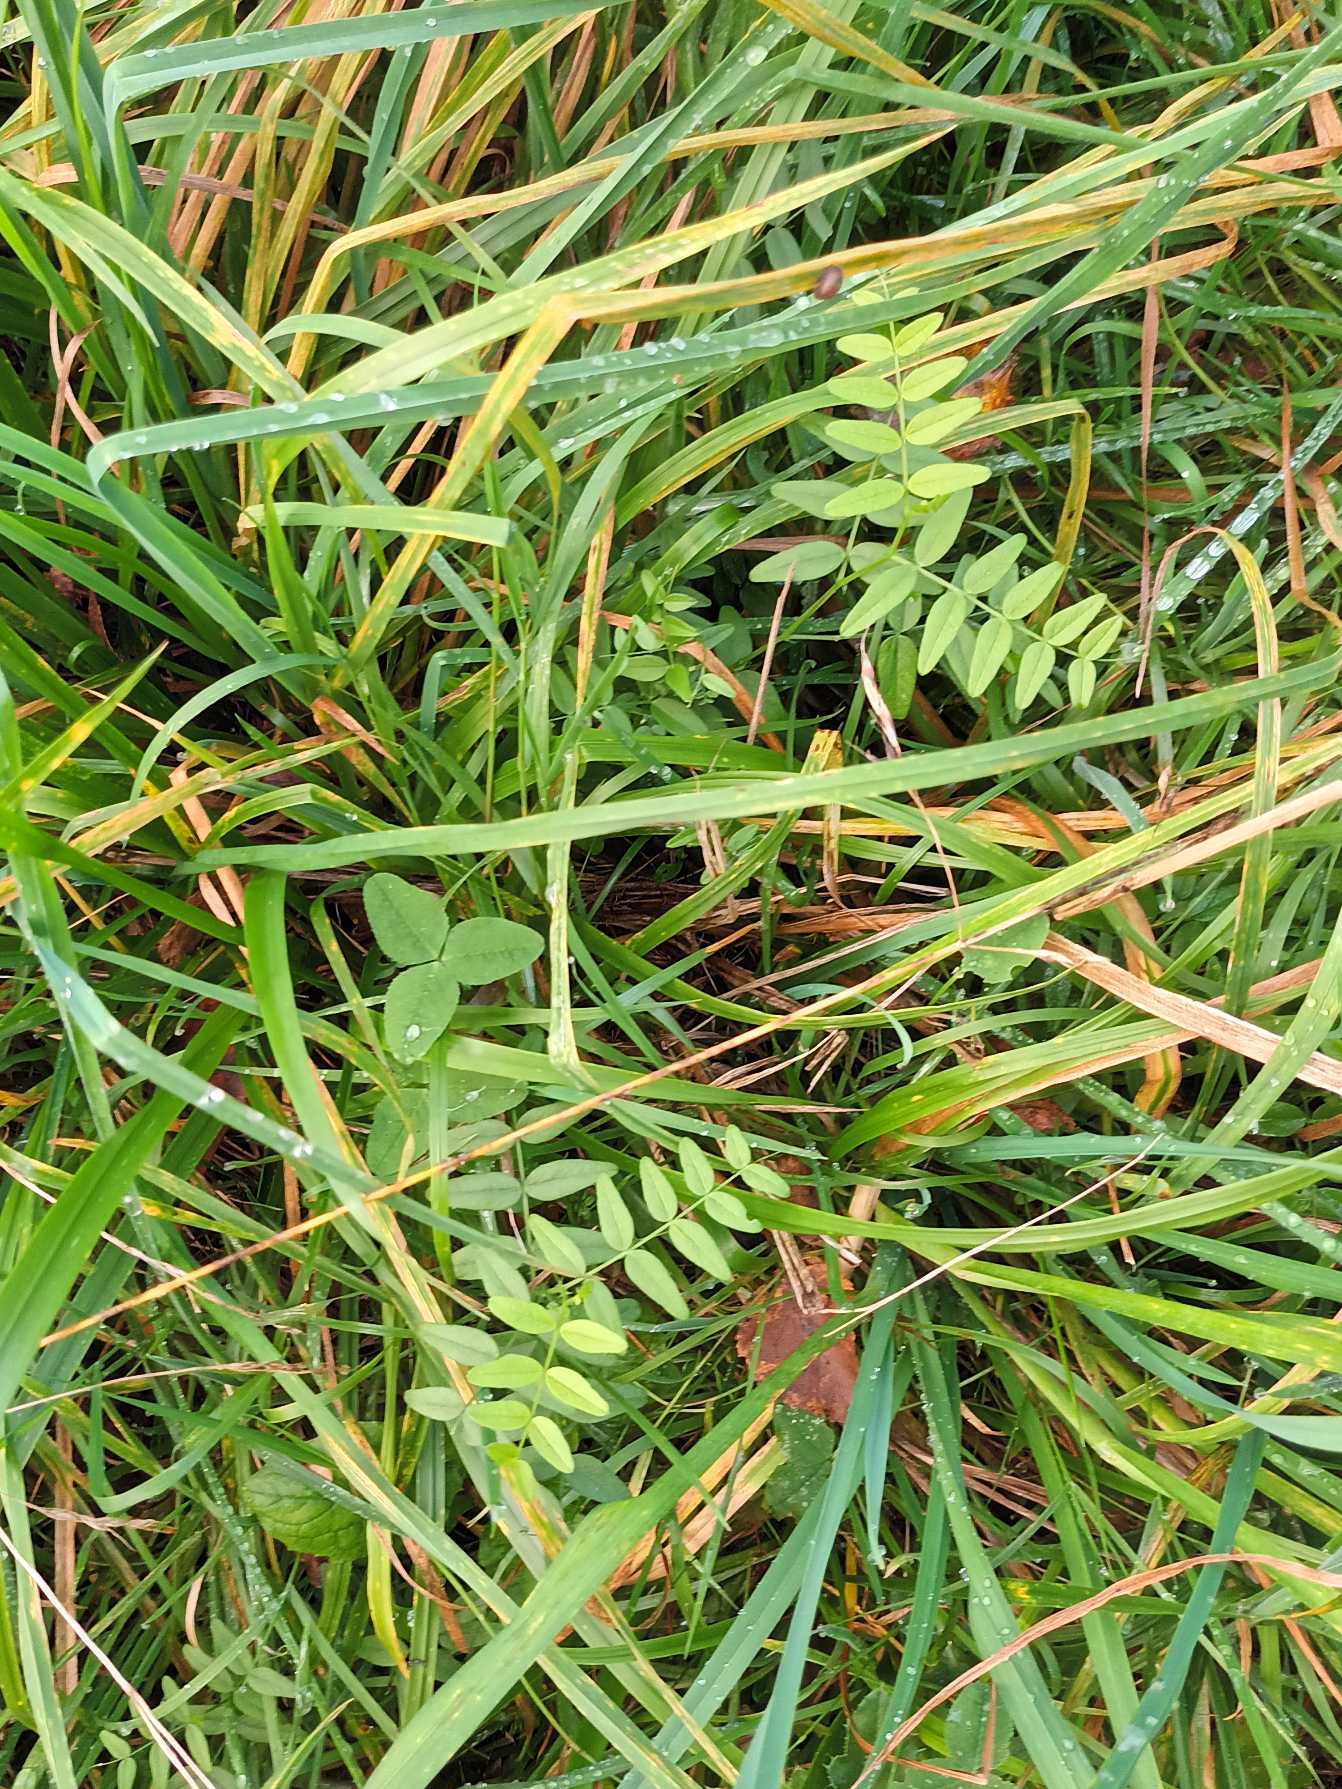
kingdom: Plantae
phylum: Tracheophyta
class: Magnoliopsida
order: Fabales
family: Fabaceae
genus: Vicia
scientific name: Vicia sepium
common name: Gærde-vikke
